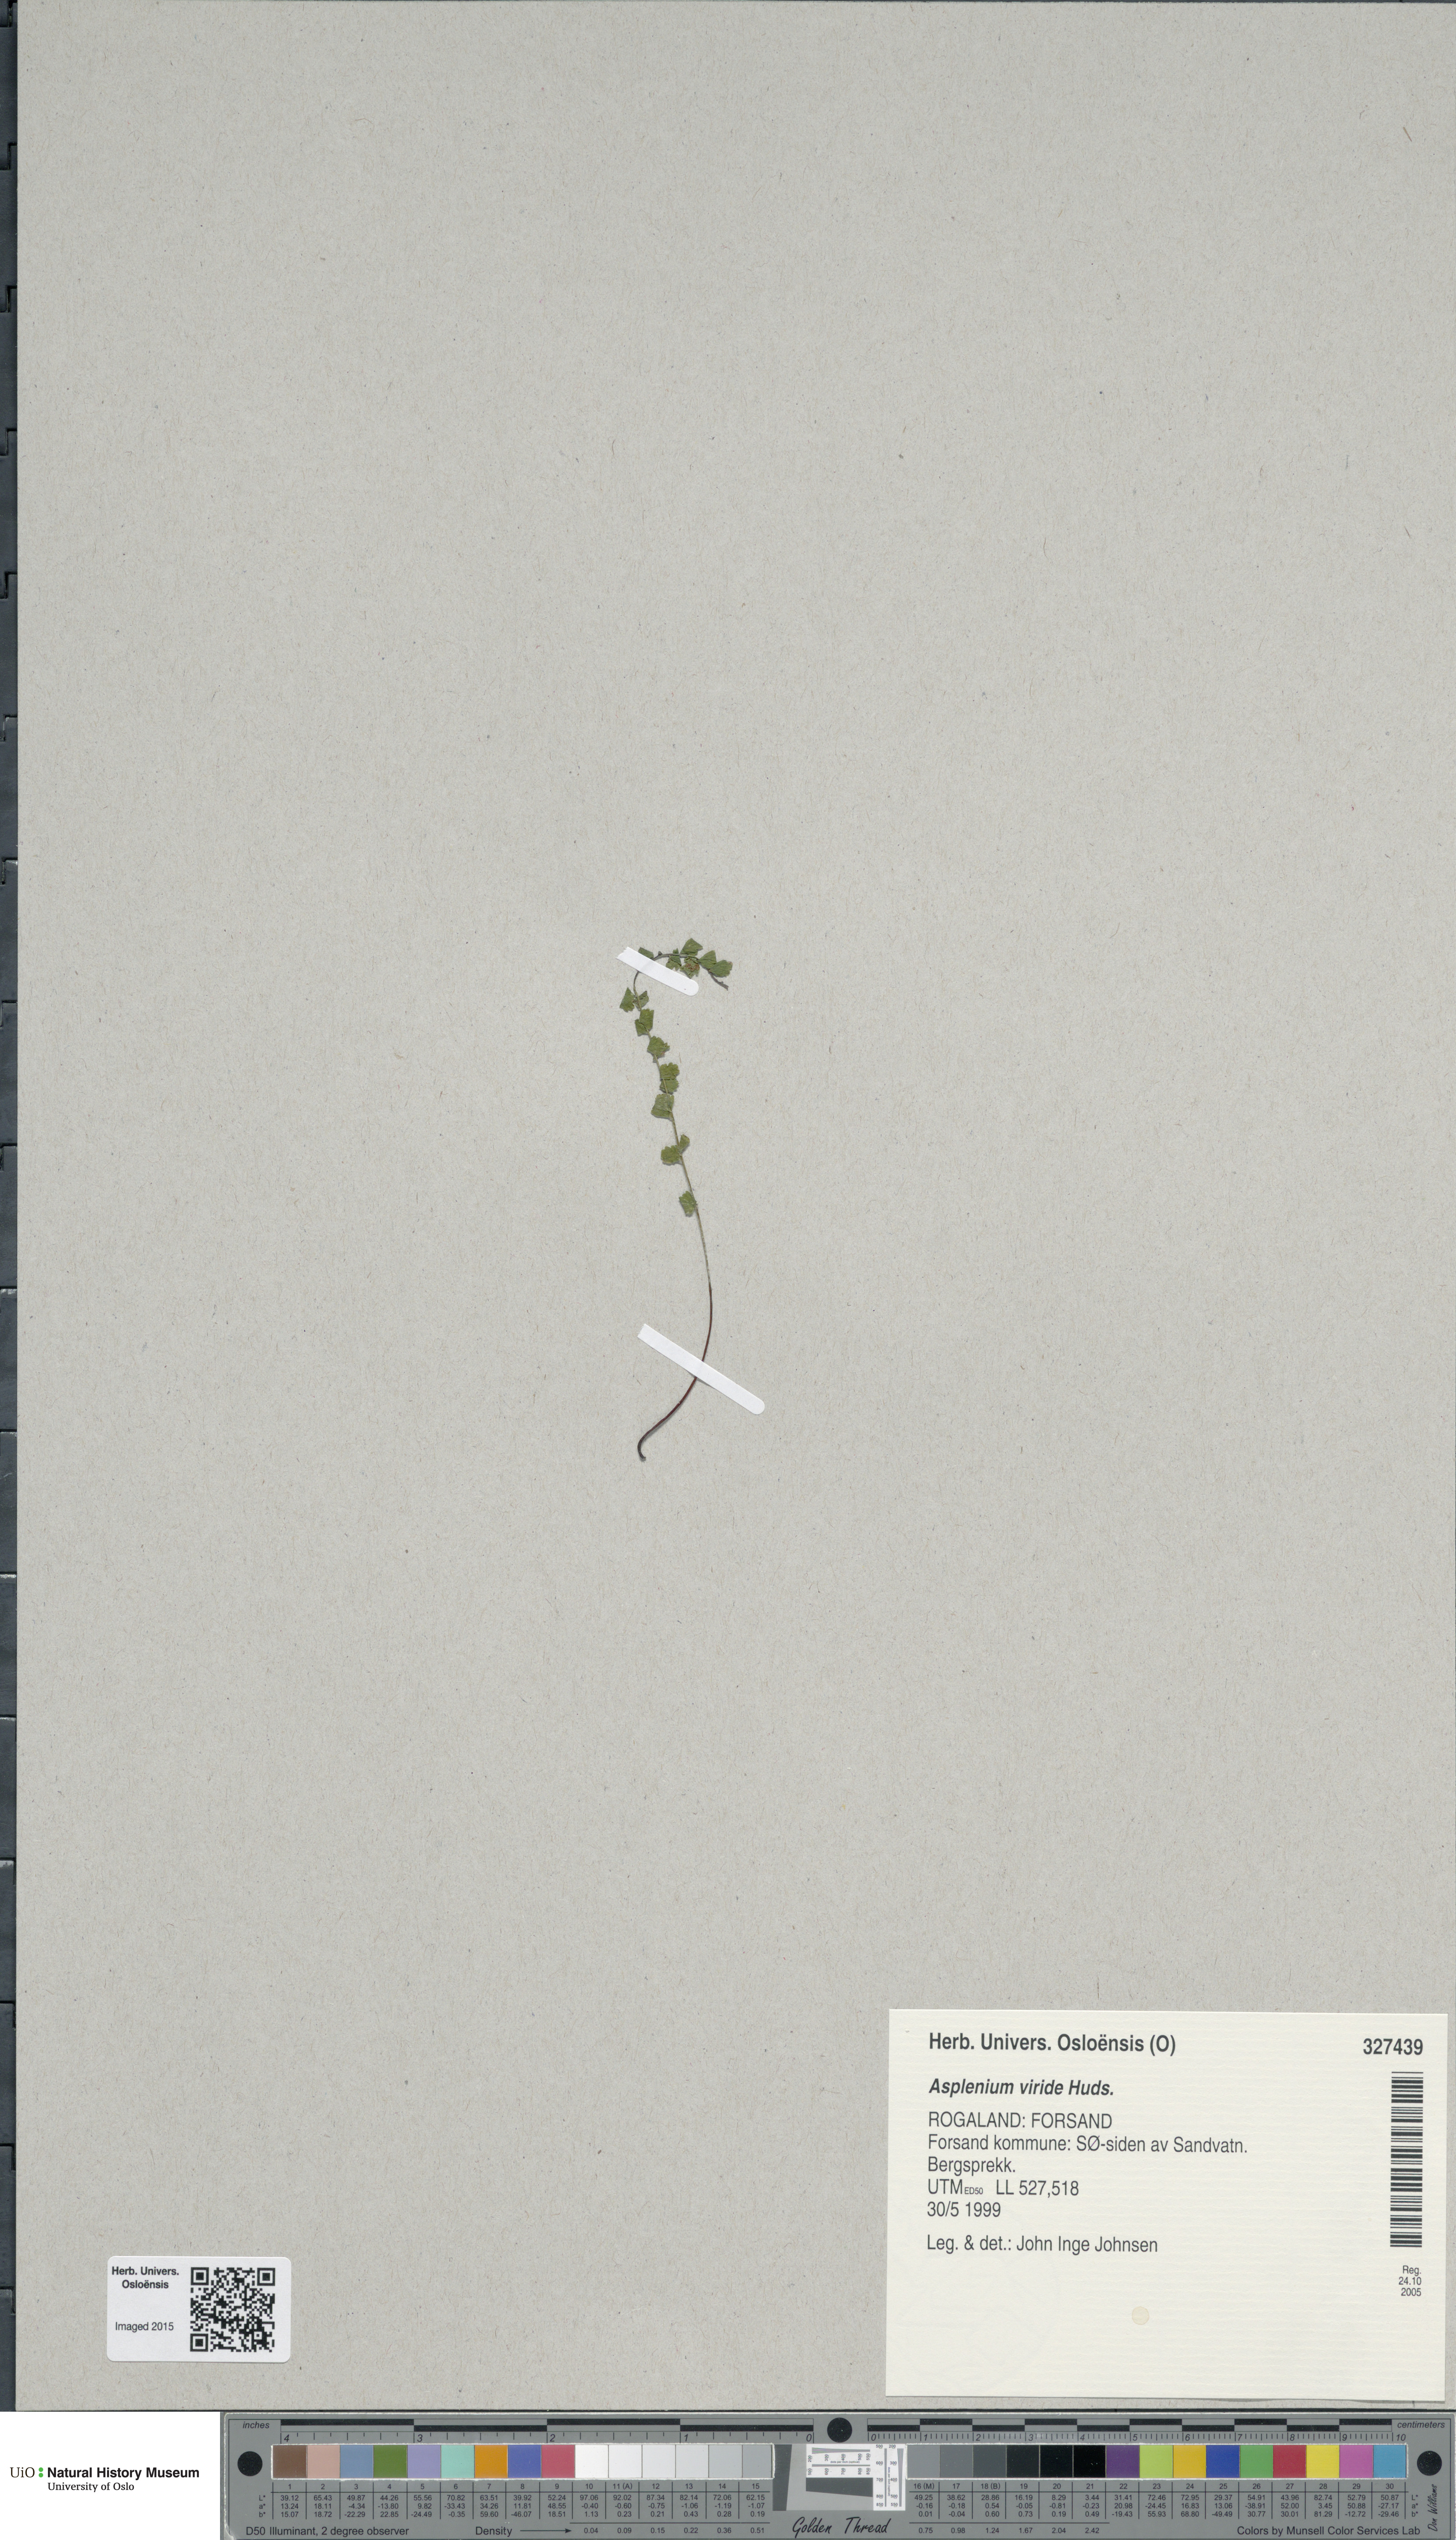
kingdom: Plantae
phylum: Tracheophyta
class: Polypodiopsida
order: Polypodiales
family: Aspleniaceae
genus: Asplenium
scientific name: Asplenium viride
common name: Green spleenwort
